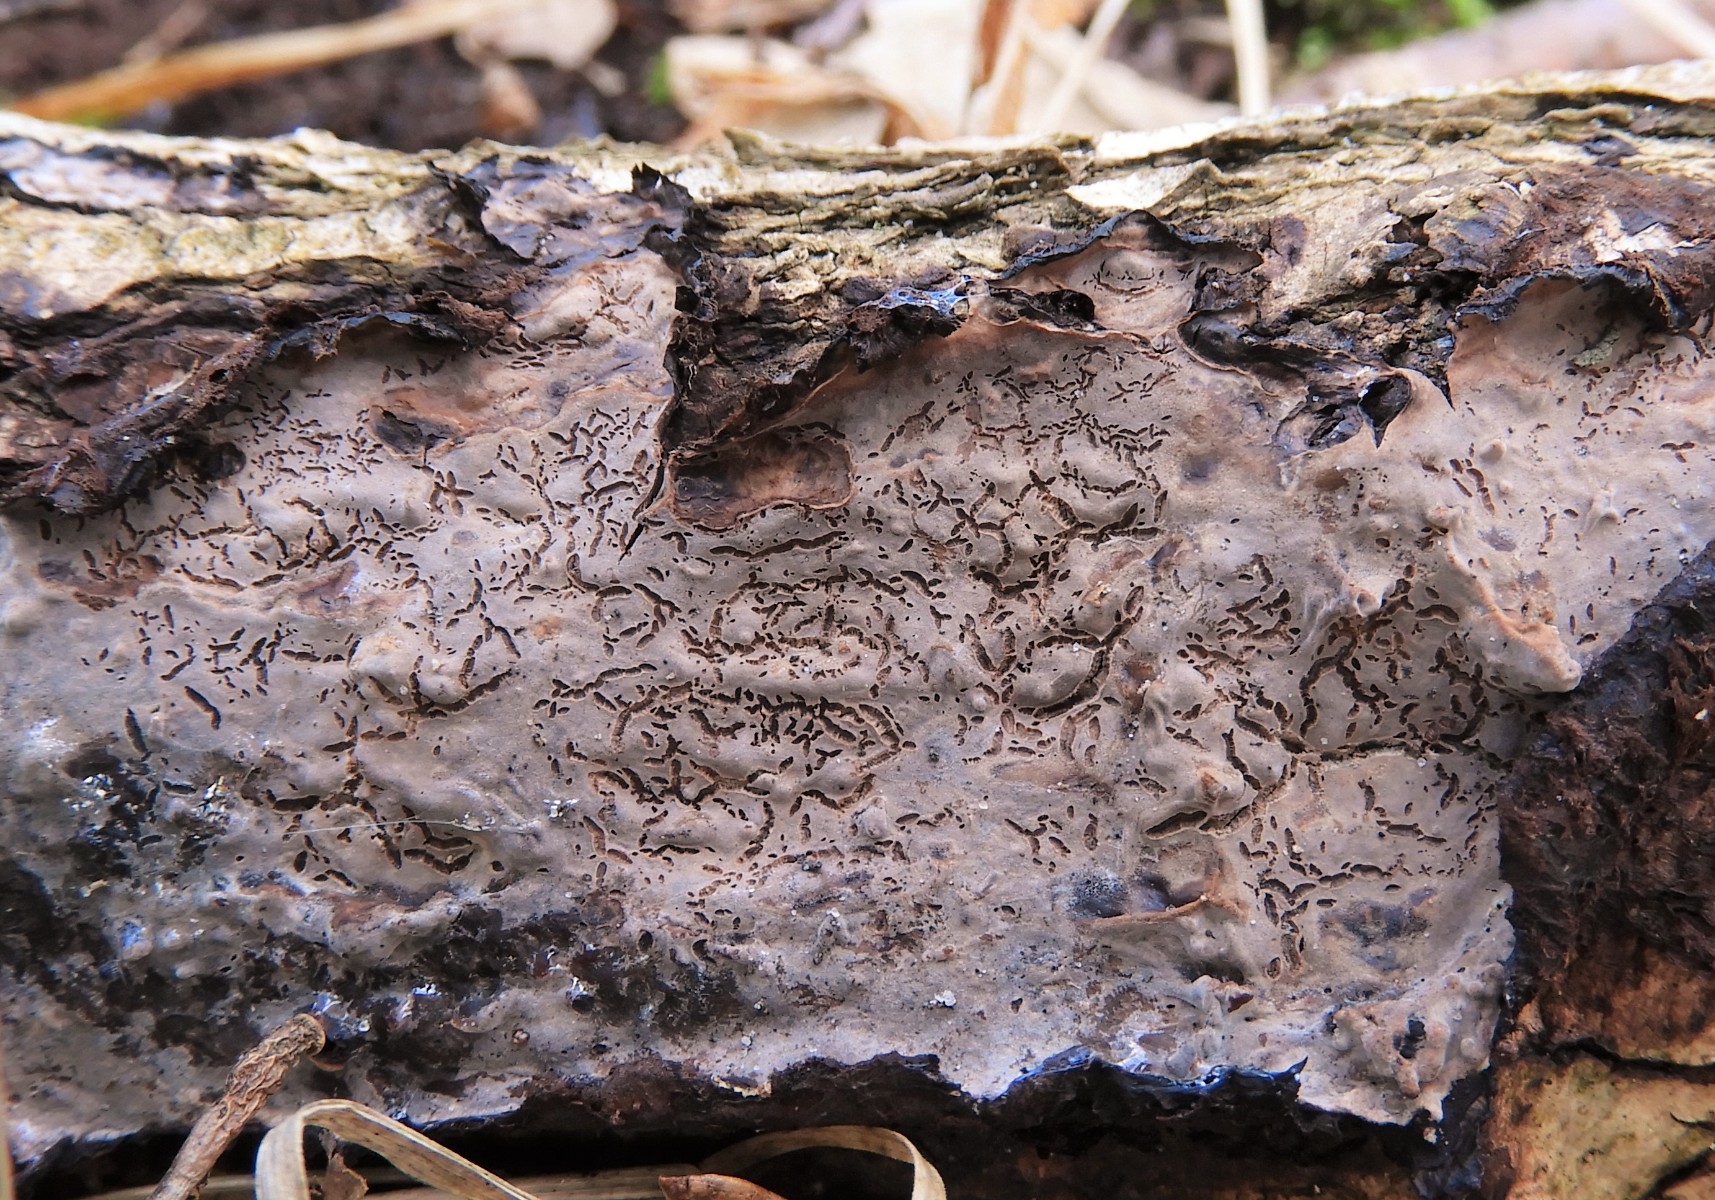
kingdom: Fungi
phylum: Basidiomycota
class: Agaricomycetes
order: Russulales
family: Peniophoraceae
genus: Peniophora
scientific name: Peniophora quercina
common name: ege-voksskind
